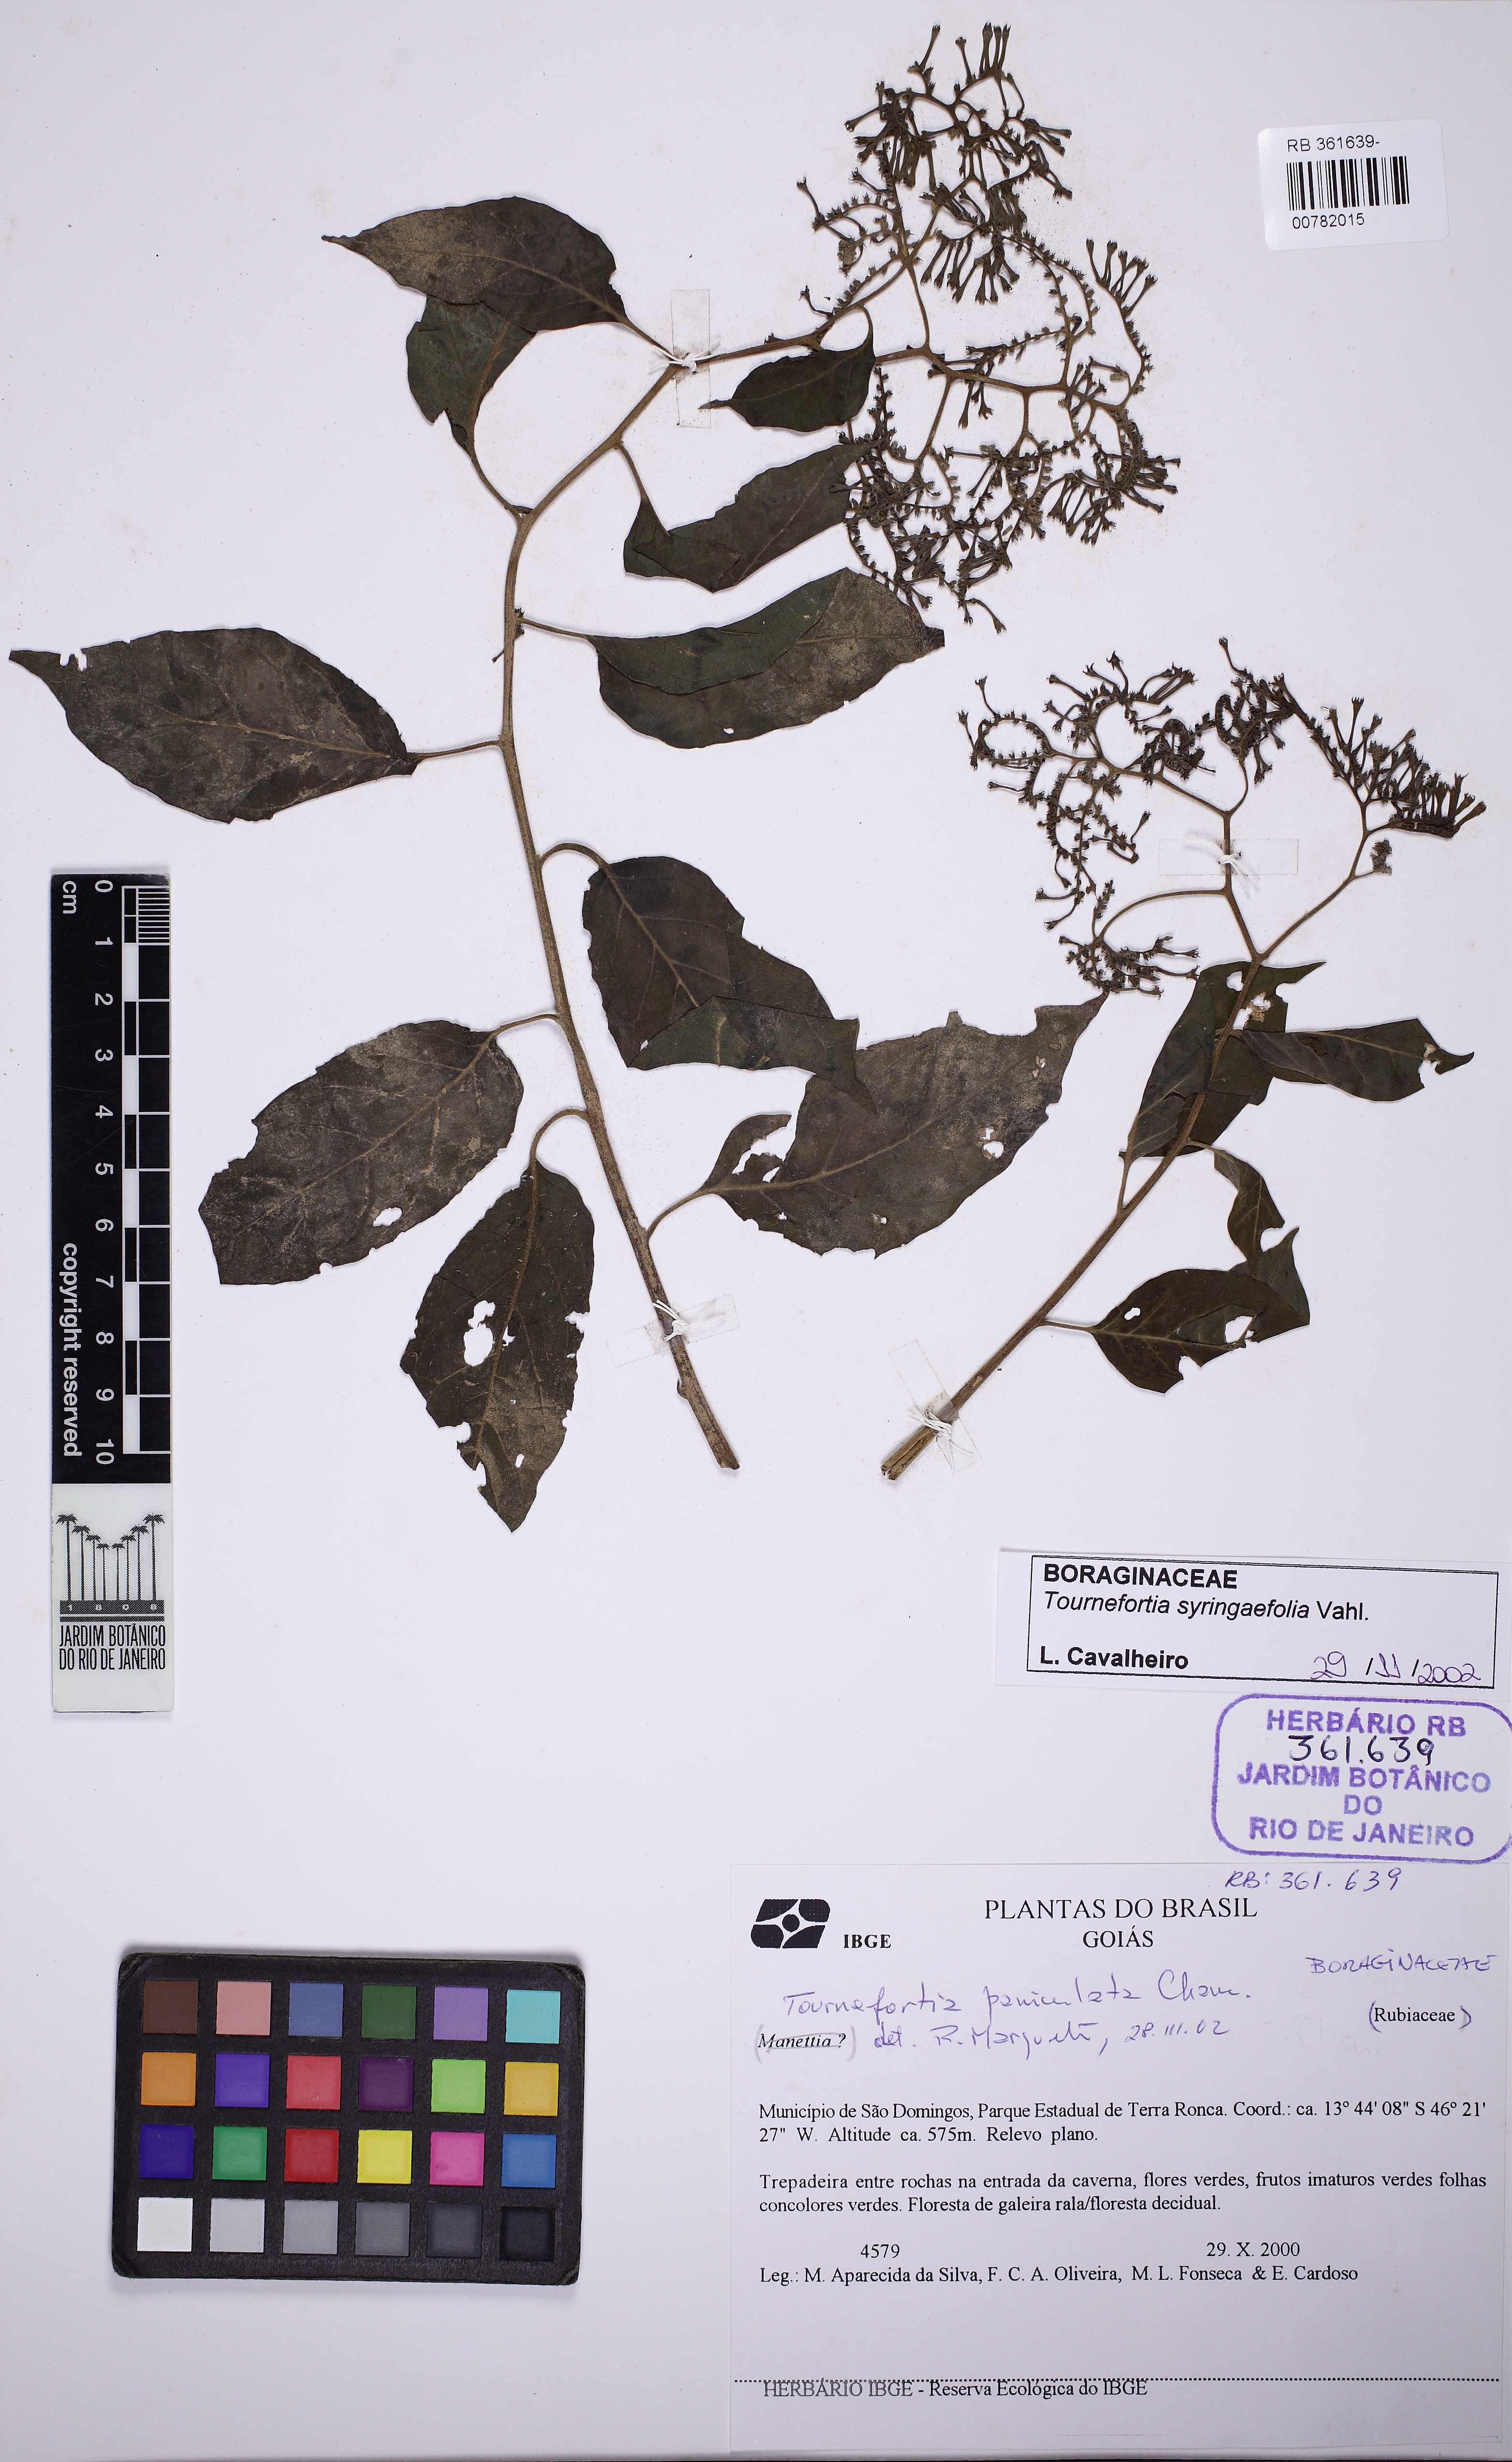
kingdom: Plantae
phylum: Tracheophyta
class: Magnoliopsida
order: Boraginales
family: Heliotropiaceae
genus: Myriopus
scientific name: Myriopus maculatus
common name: Laurel-leaf soldierbush
